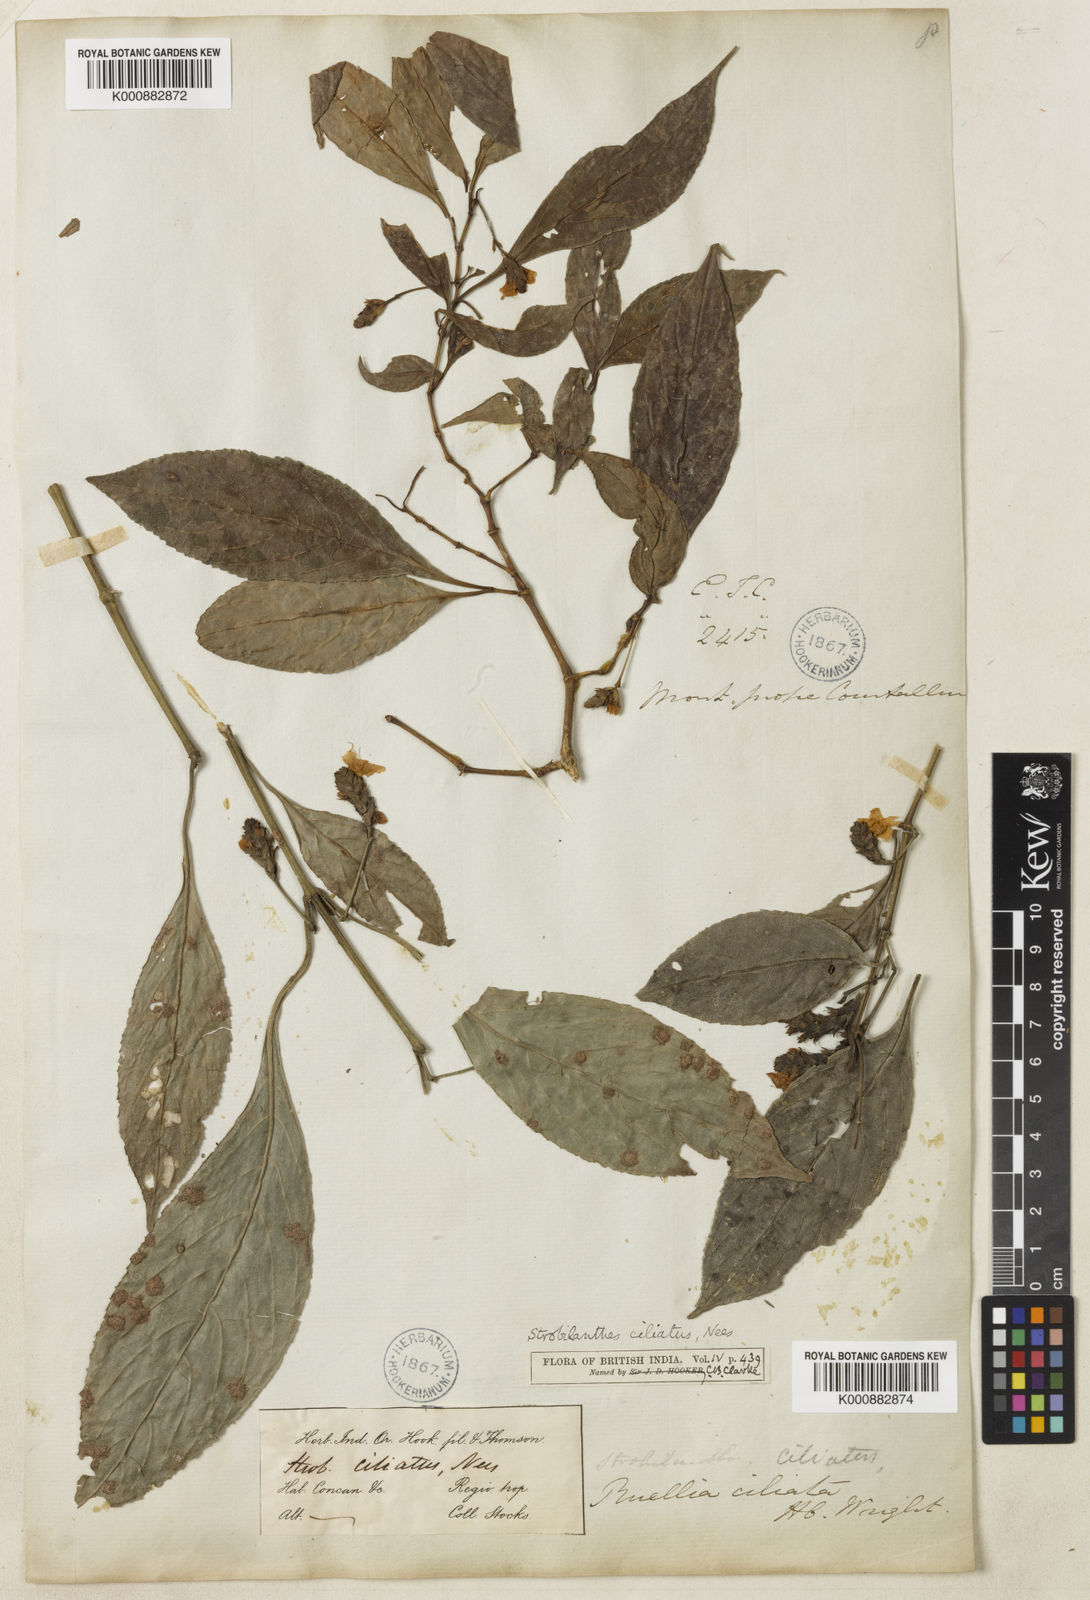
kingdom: Plantae
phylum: Tracheophyta
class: Magnoliopsida
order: Lamiales
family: Acanthaceae
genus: Strobilanthes
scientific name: Strobilanthes ciliata
